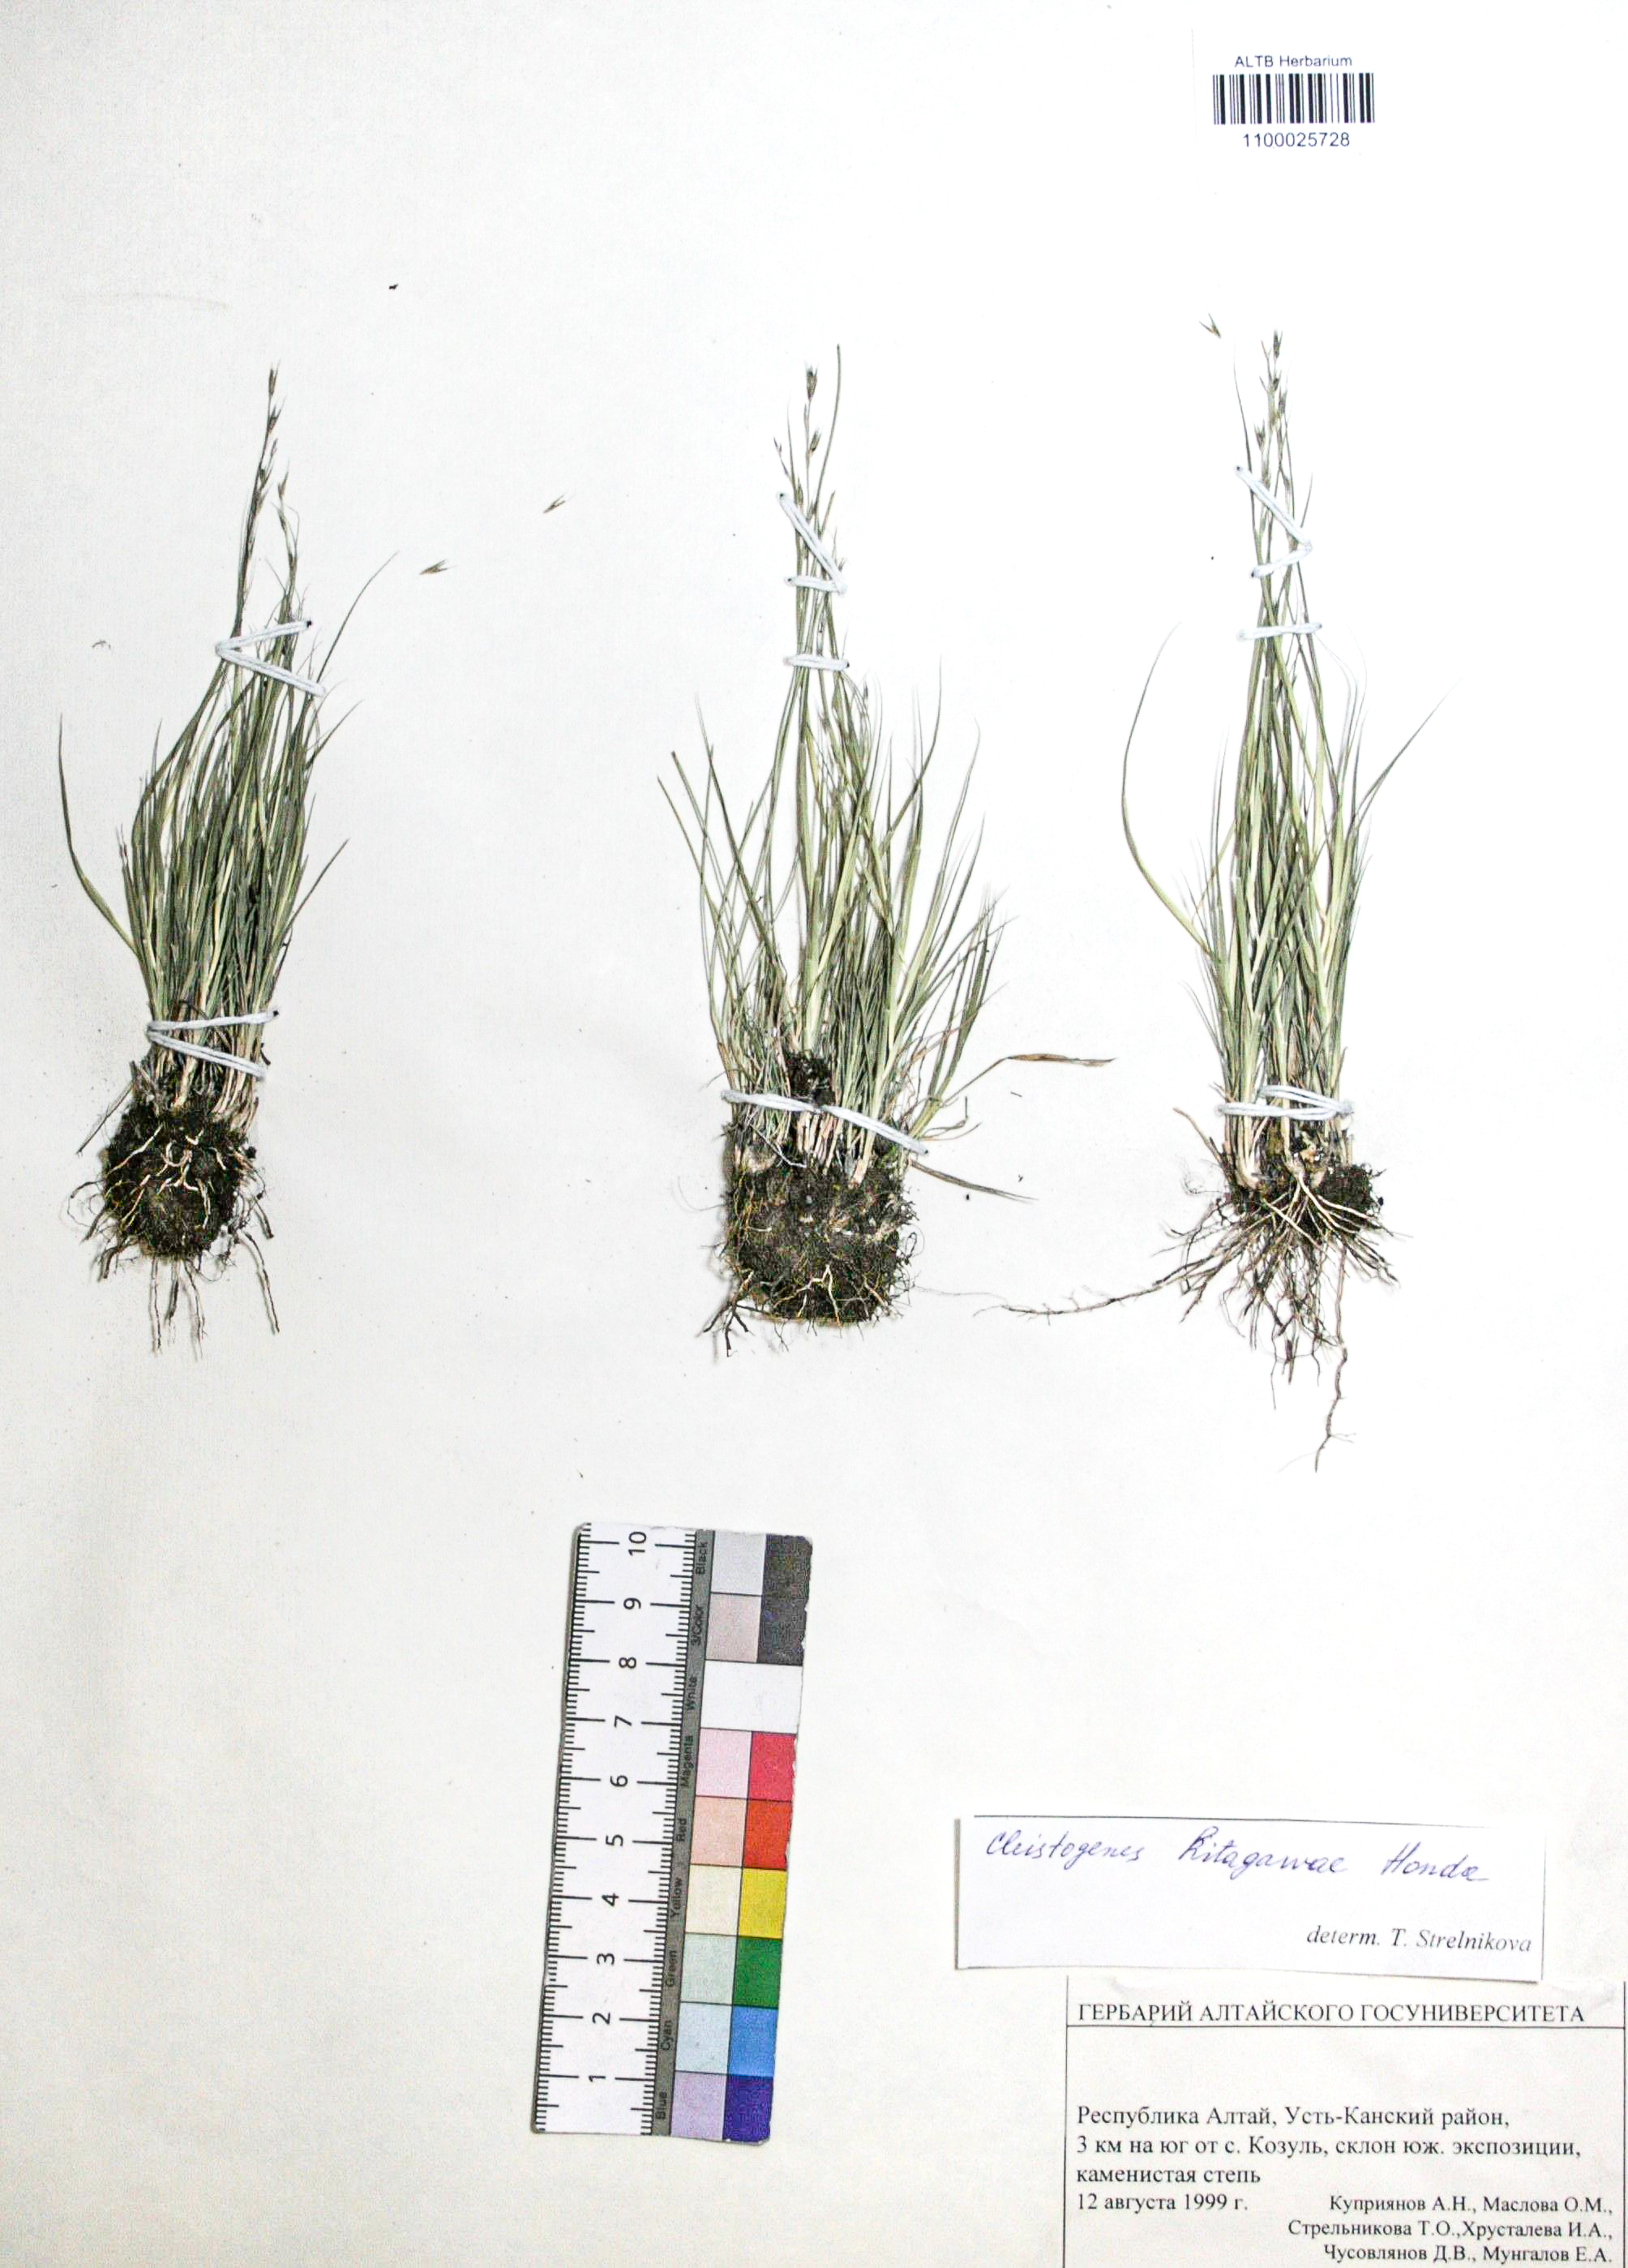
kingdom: Plantae
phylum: Tracheophyta
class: Liliopsida
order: Poales
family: Poaceae
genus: Cleistogenes
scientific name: Cleistogenes kitagawae
